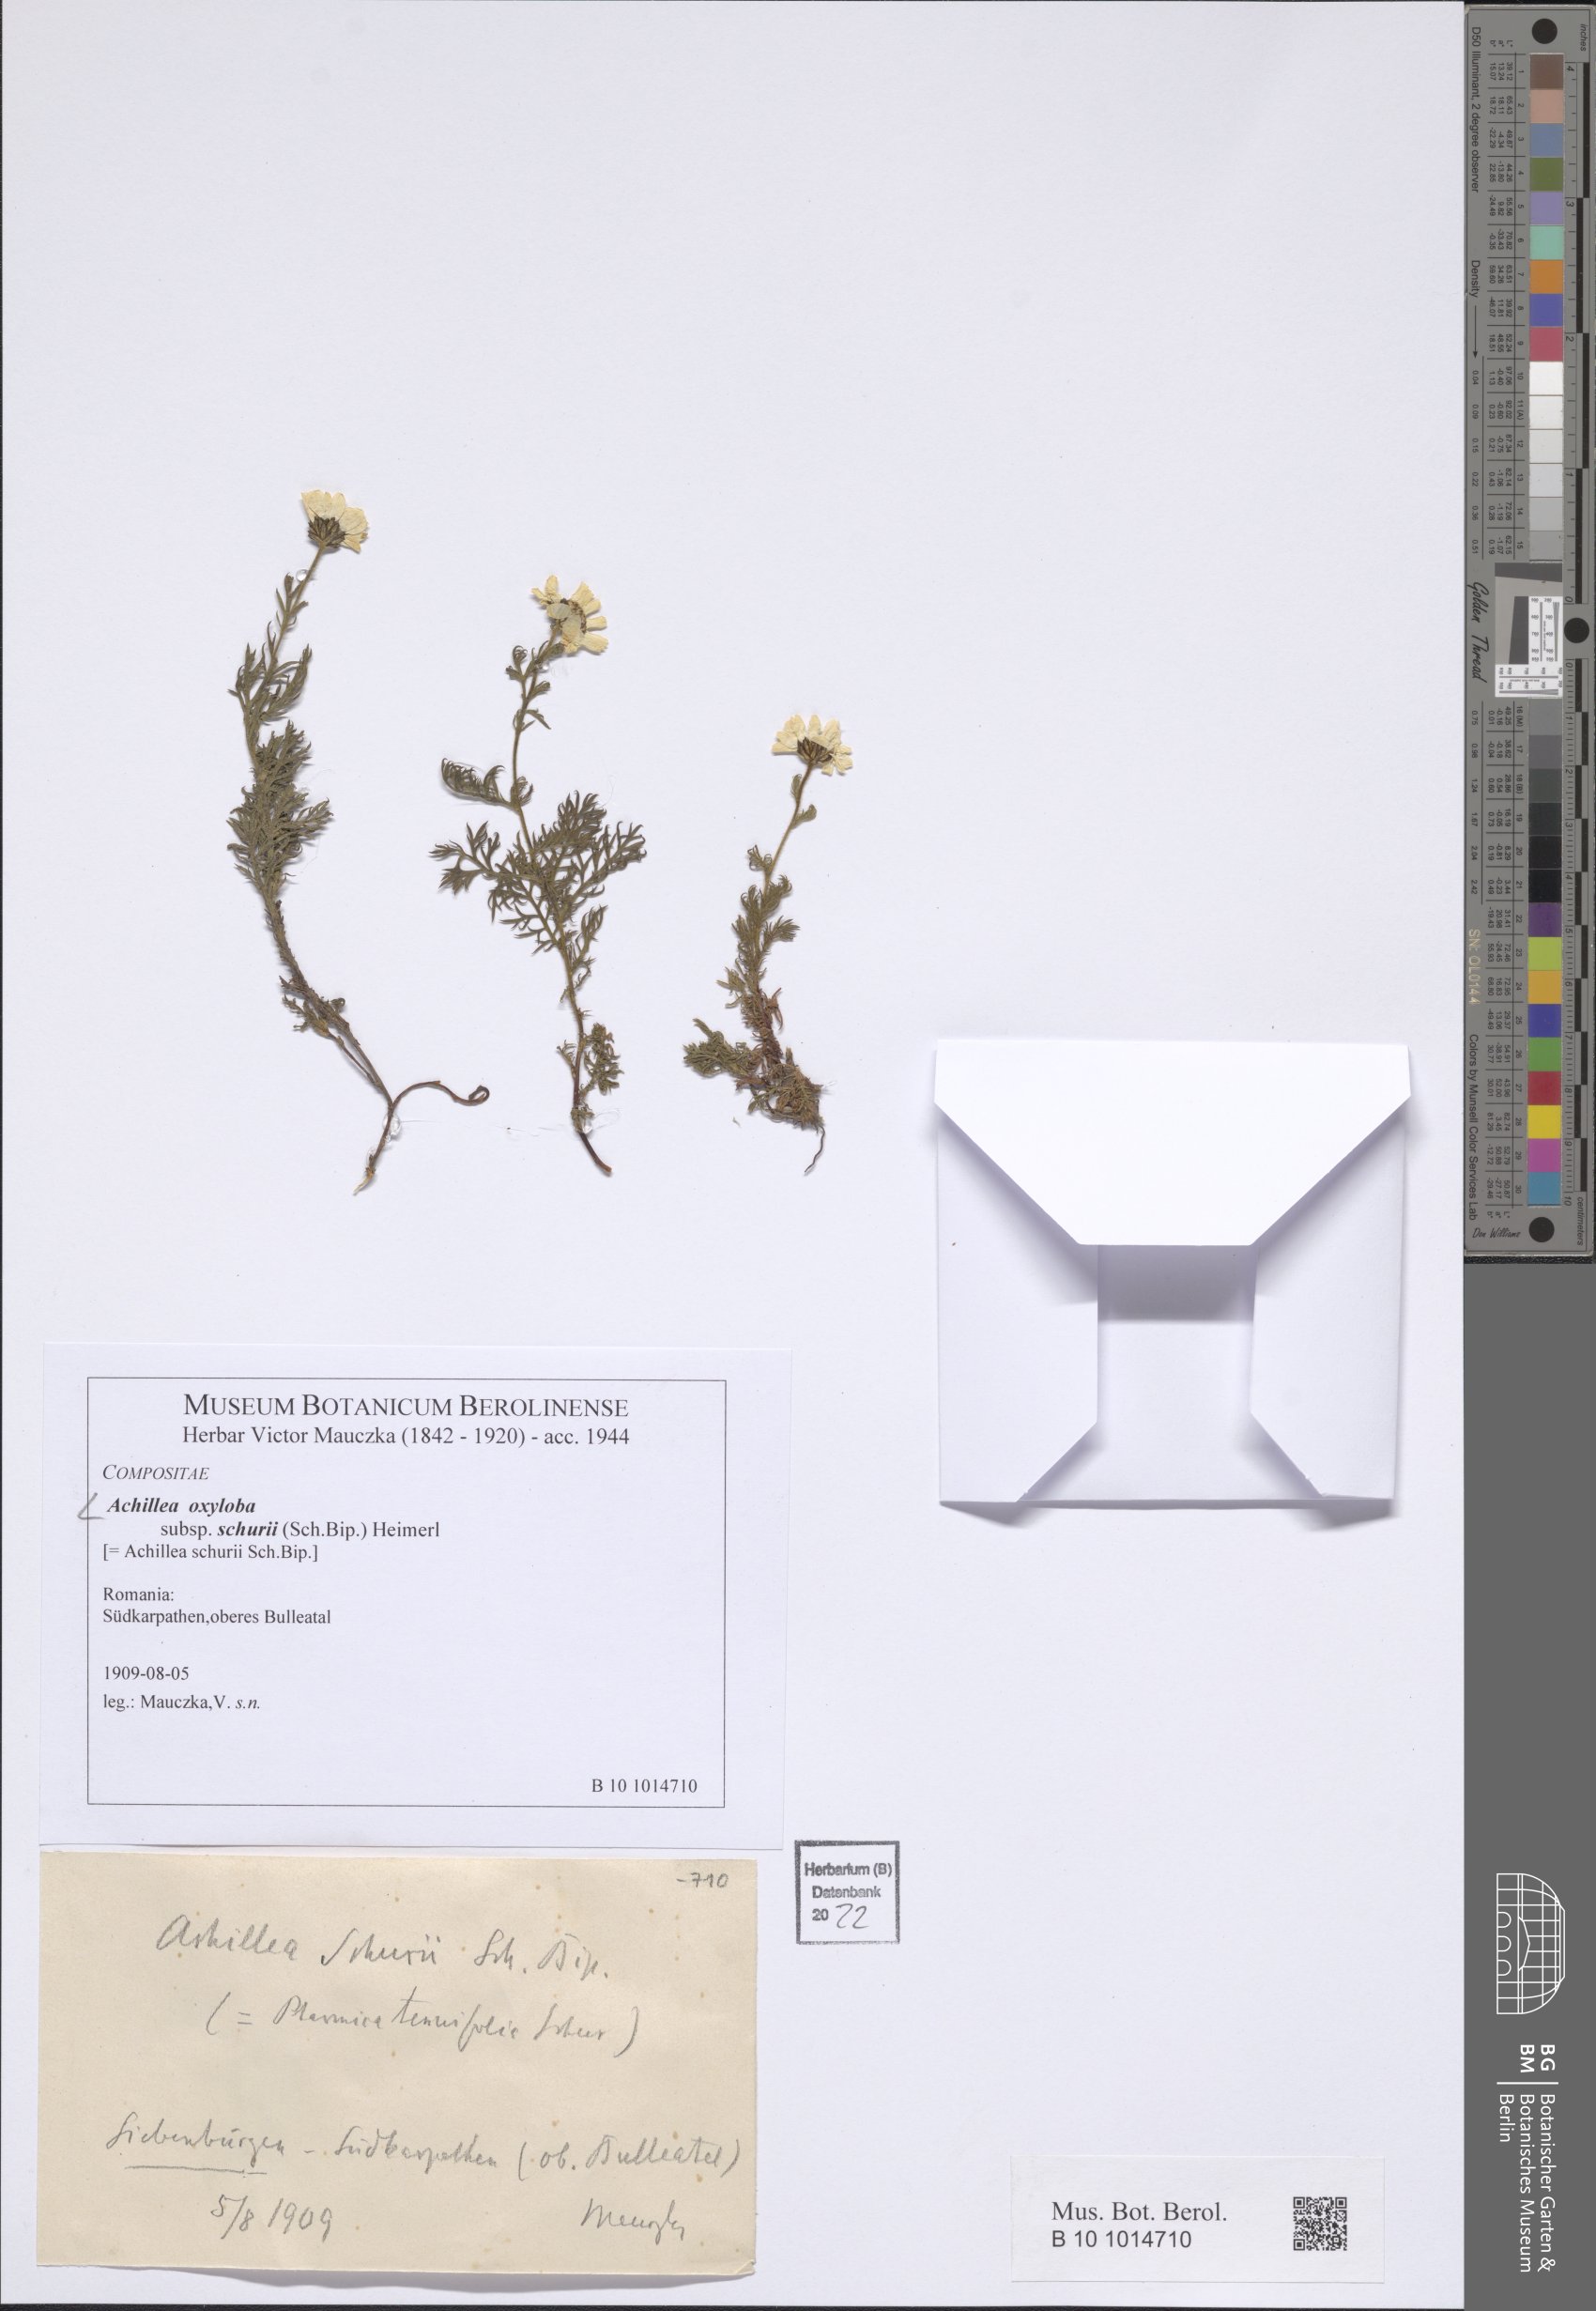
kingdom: Plantae
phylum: Tracheophyta
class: Magnoliopsida
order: Asterales
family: Asteraceae
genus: Achillea
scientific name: Achillea oxyloba
